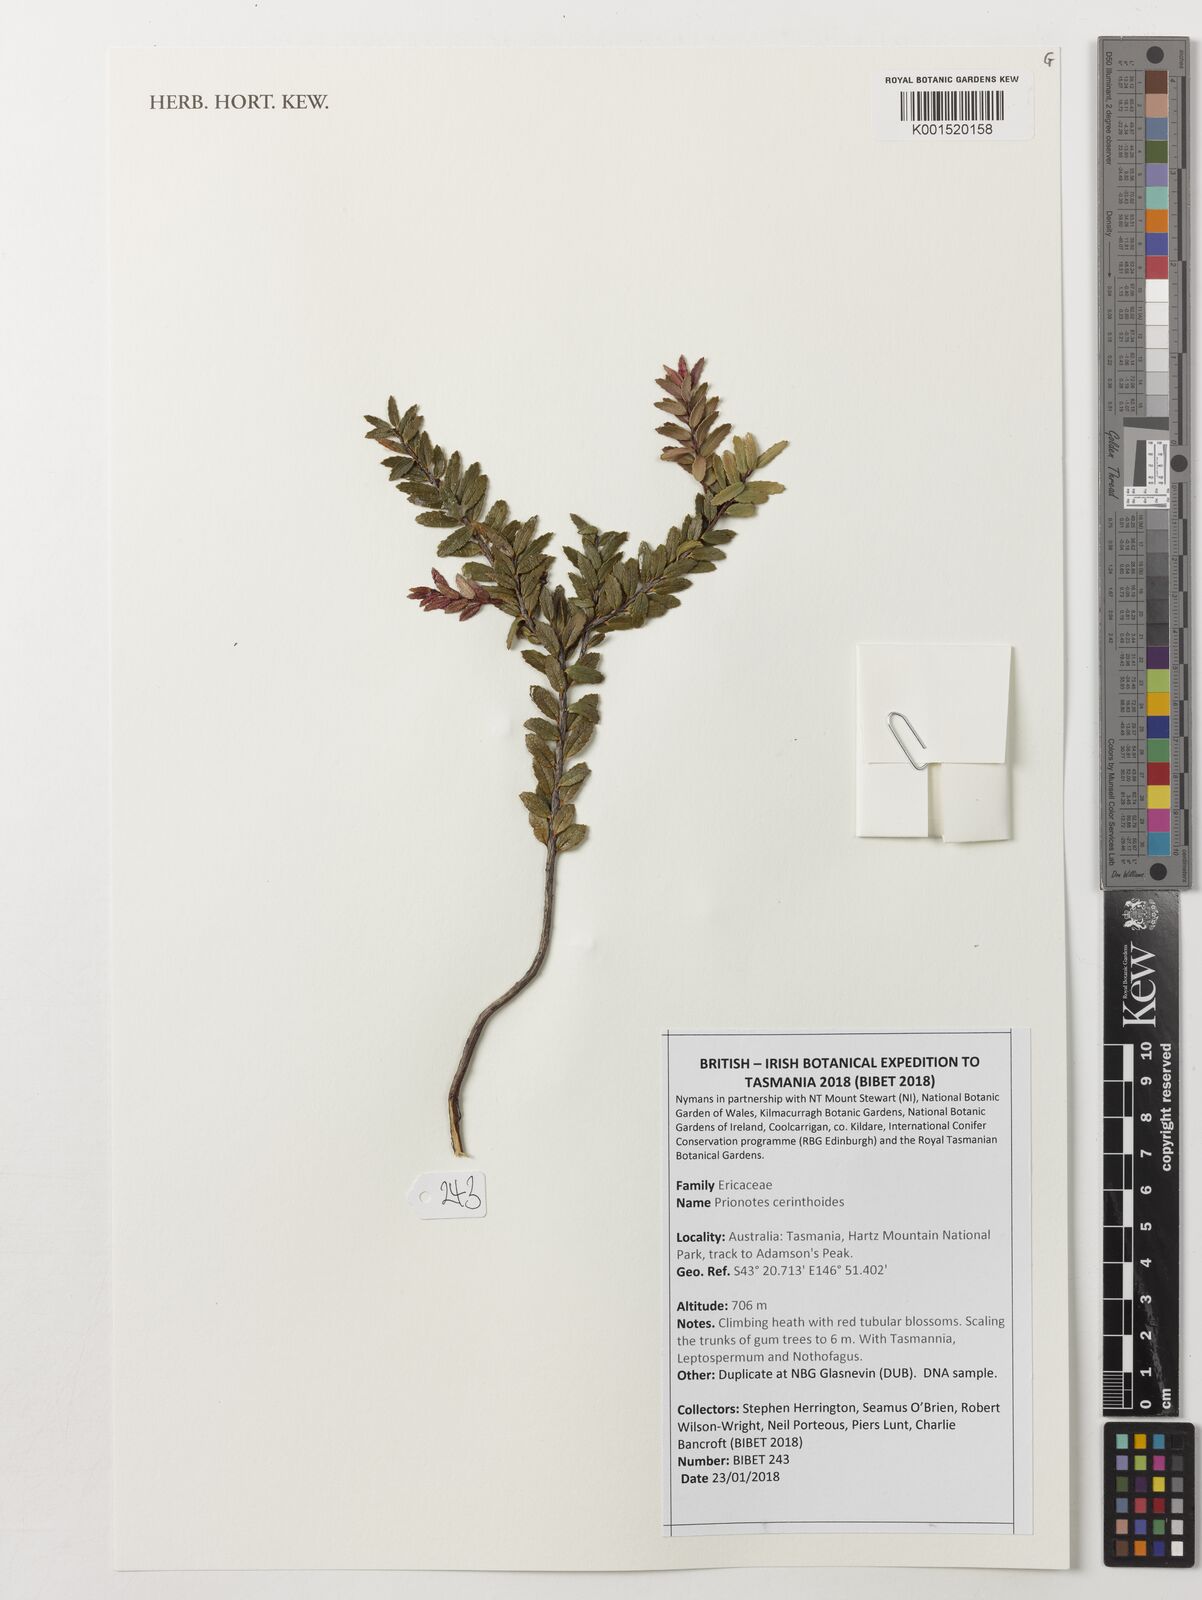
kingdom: Plantae
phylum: Tracheophyta
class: Magnoliopsida
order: Ericales
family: Ericaceae
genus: Prionotes
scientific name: Prionotes cerinthoides
